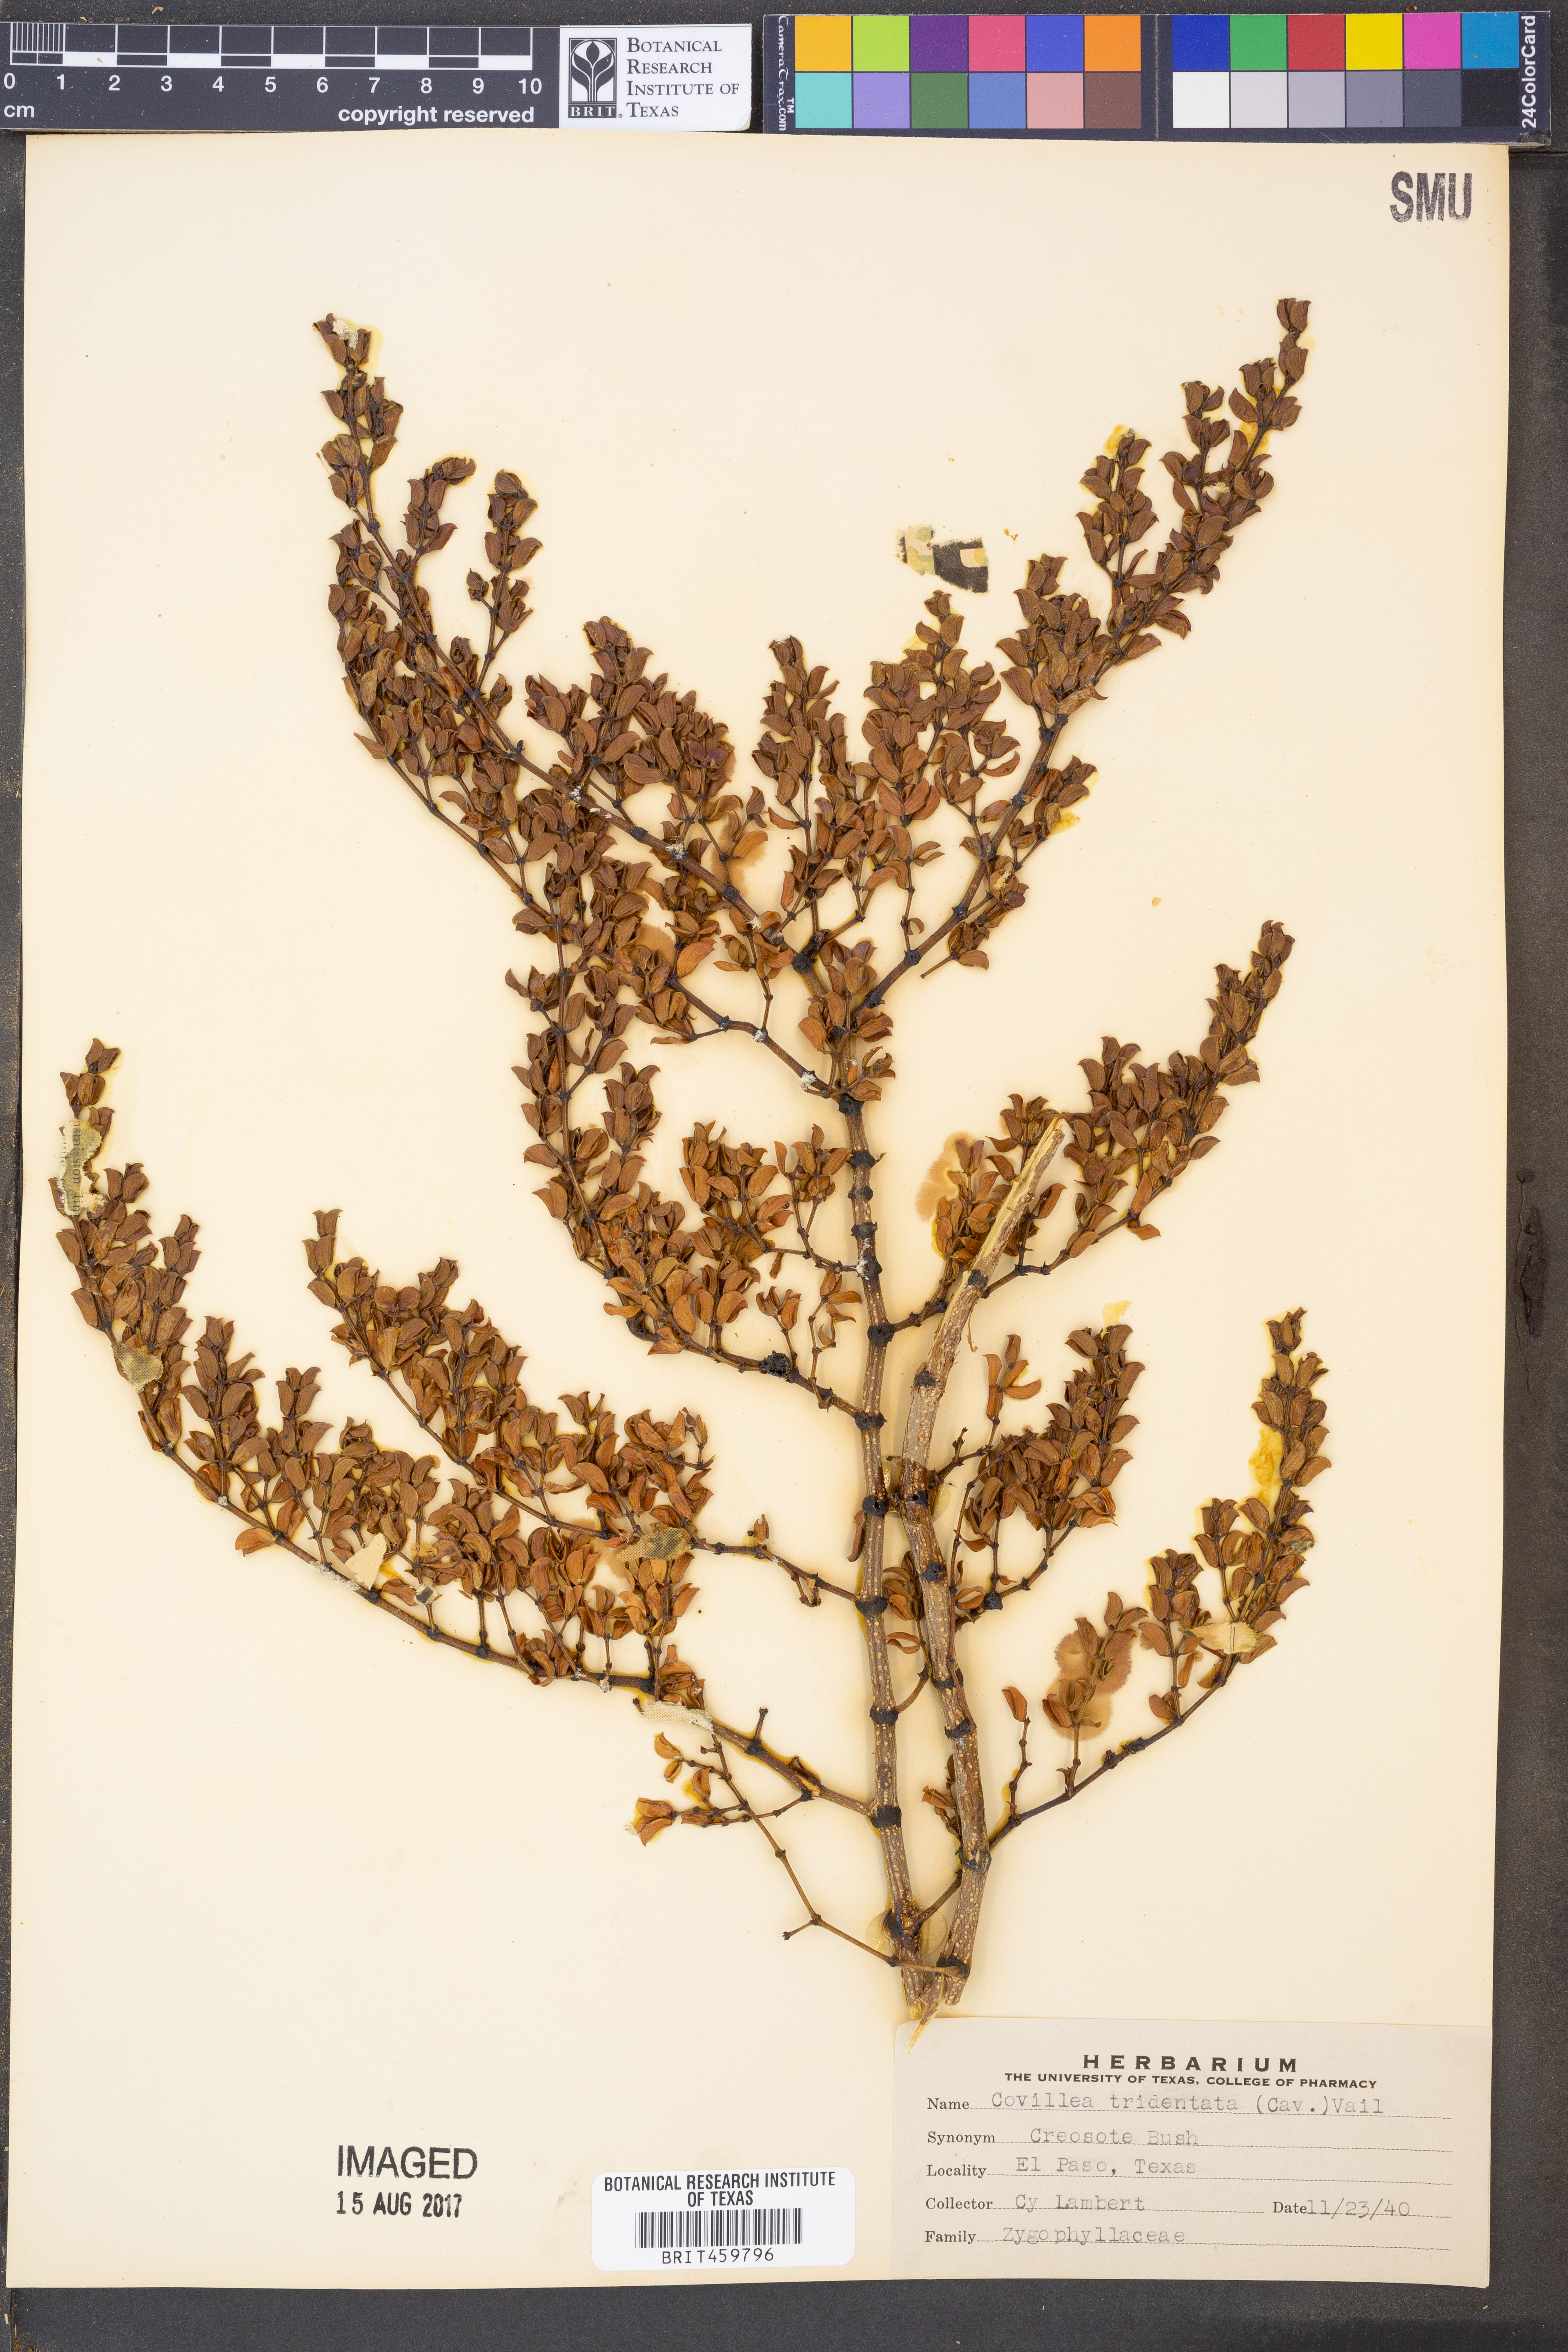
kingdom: Plantae
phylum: Tracheophyta
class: Magnoliopsida
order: Zygophyllales
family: Zygophyllaceae
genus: Larrea
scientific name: Larrea tridentata
